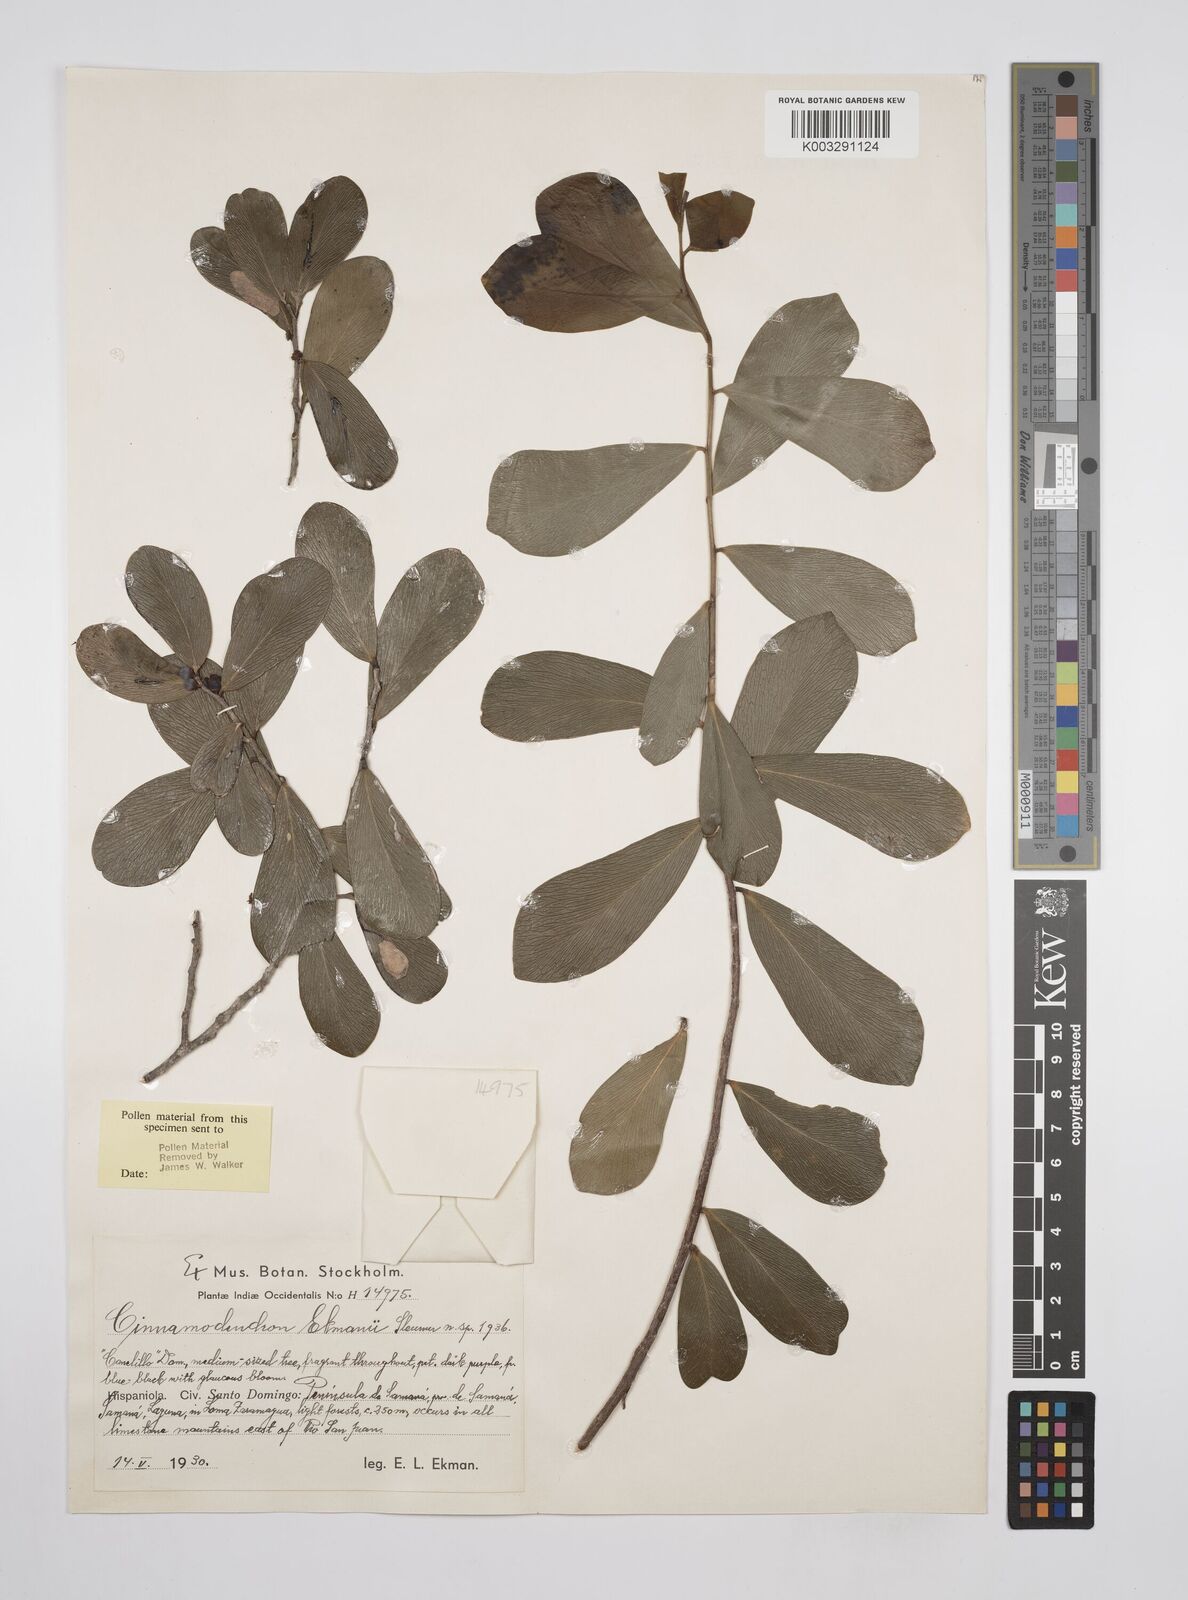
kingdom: Plantae
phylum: Tracheophyta
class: Magnoliopsida
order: Canellales
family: Canellaceae
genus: Cinnamodendron
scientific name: Cinnamodendron ekmanii
